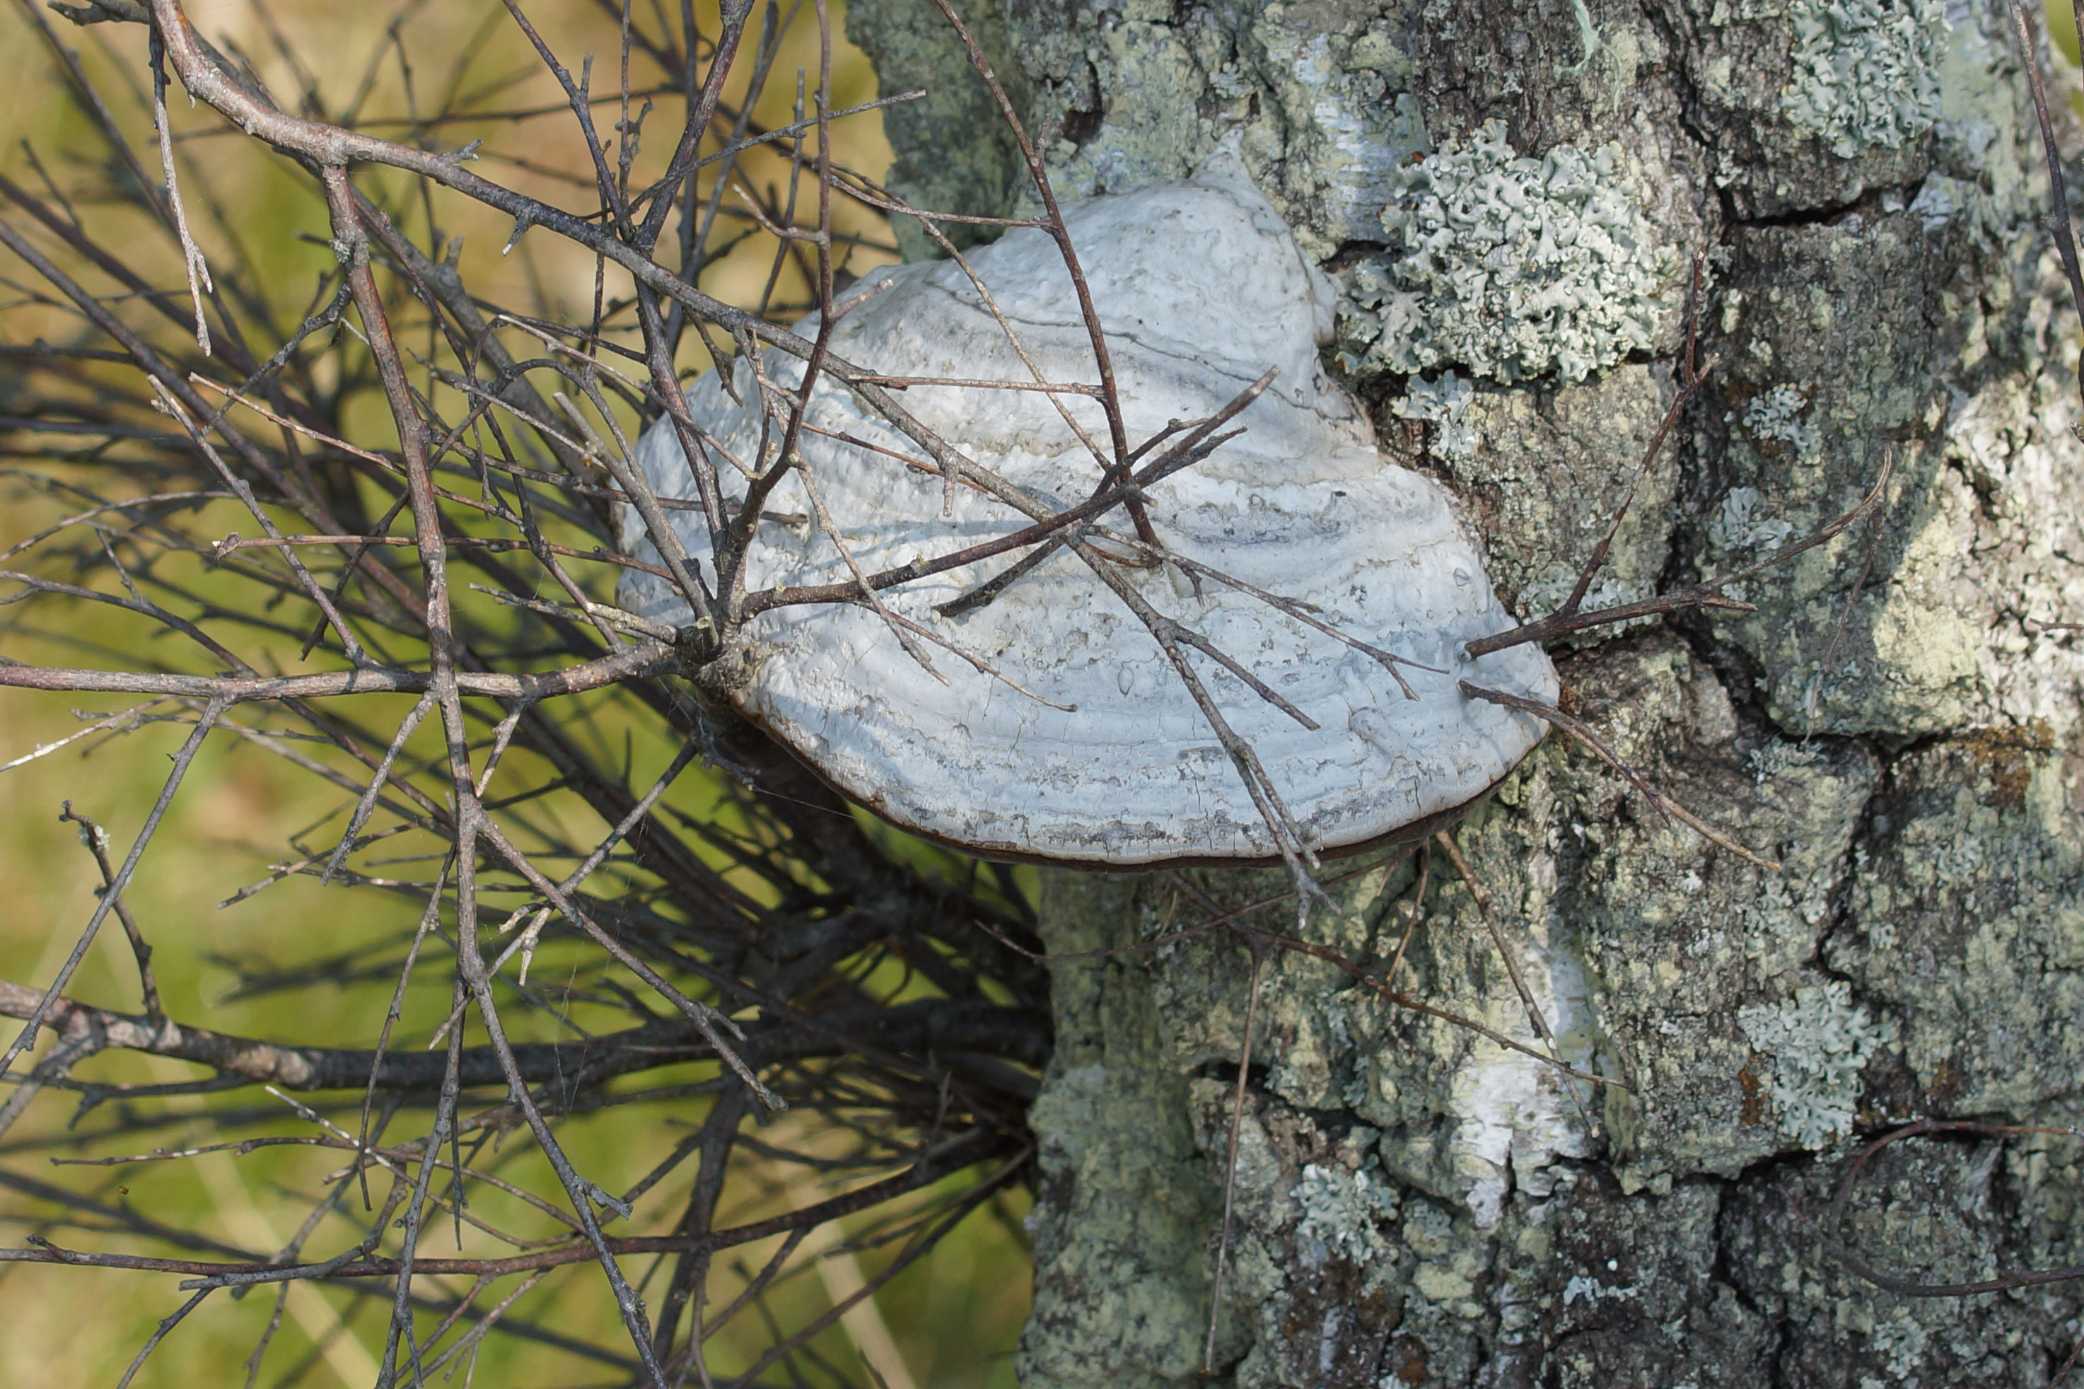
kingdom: Fungi
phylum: Basidiomycota
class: Agaricomycetes
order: Polyporales
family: Polyporaceae
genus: Fomes
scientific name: Fomes fomentarius
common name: Tøndersvamp
